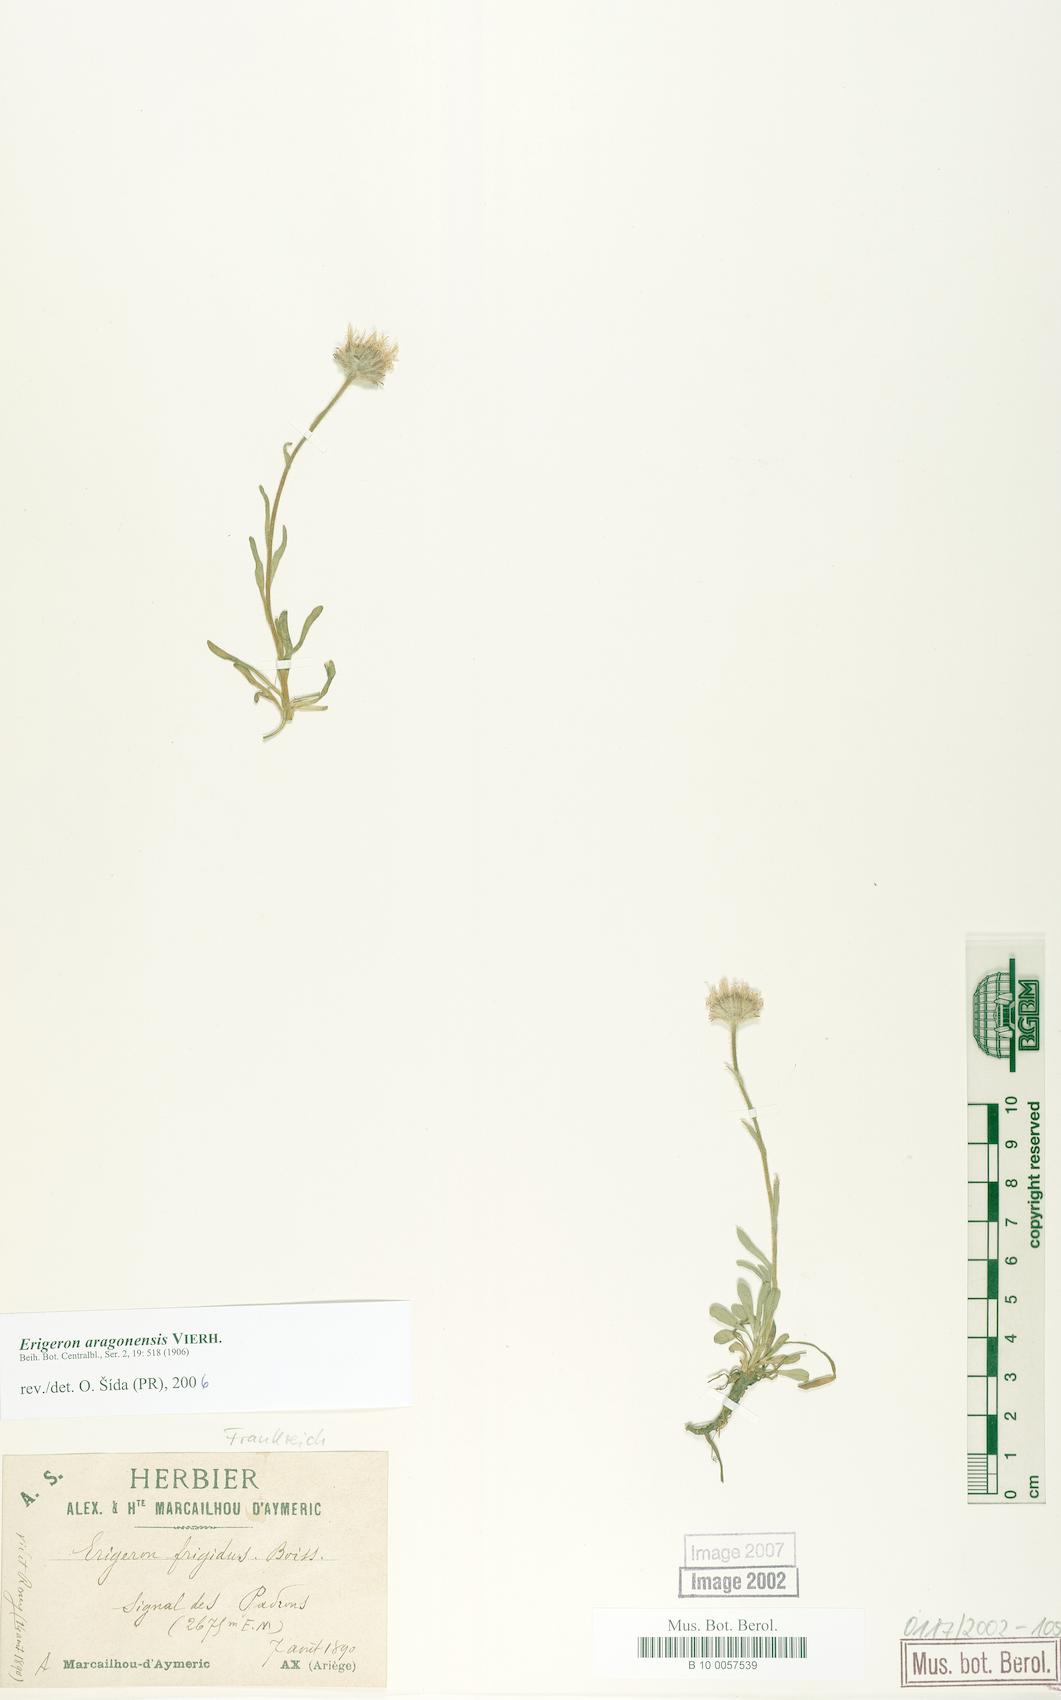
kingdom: Plantae
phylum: Tracheophyta
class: Magnoliopsida
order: Asterales
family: Asteraceae
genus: Erigeron
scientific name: Erigeron aragonensis
